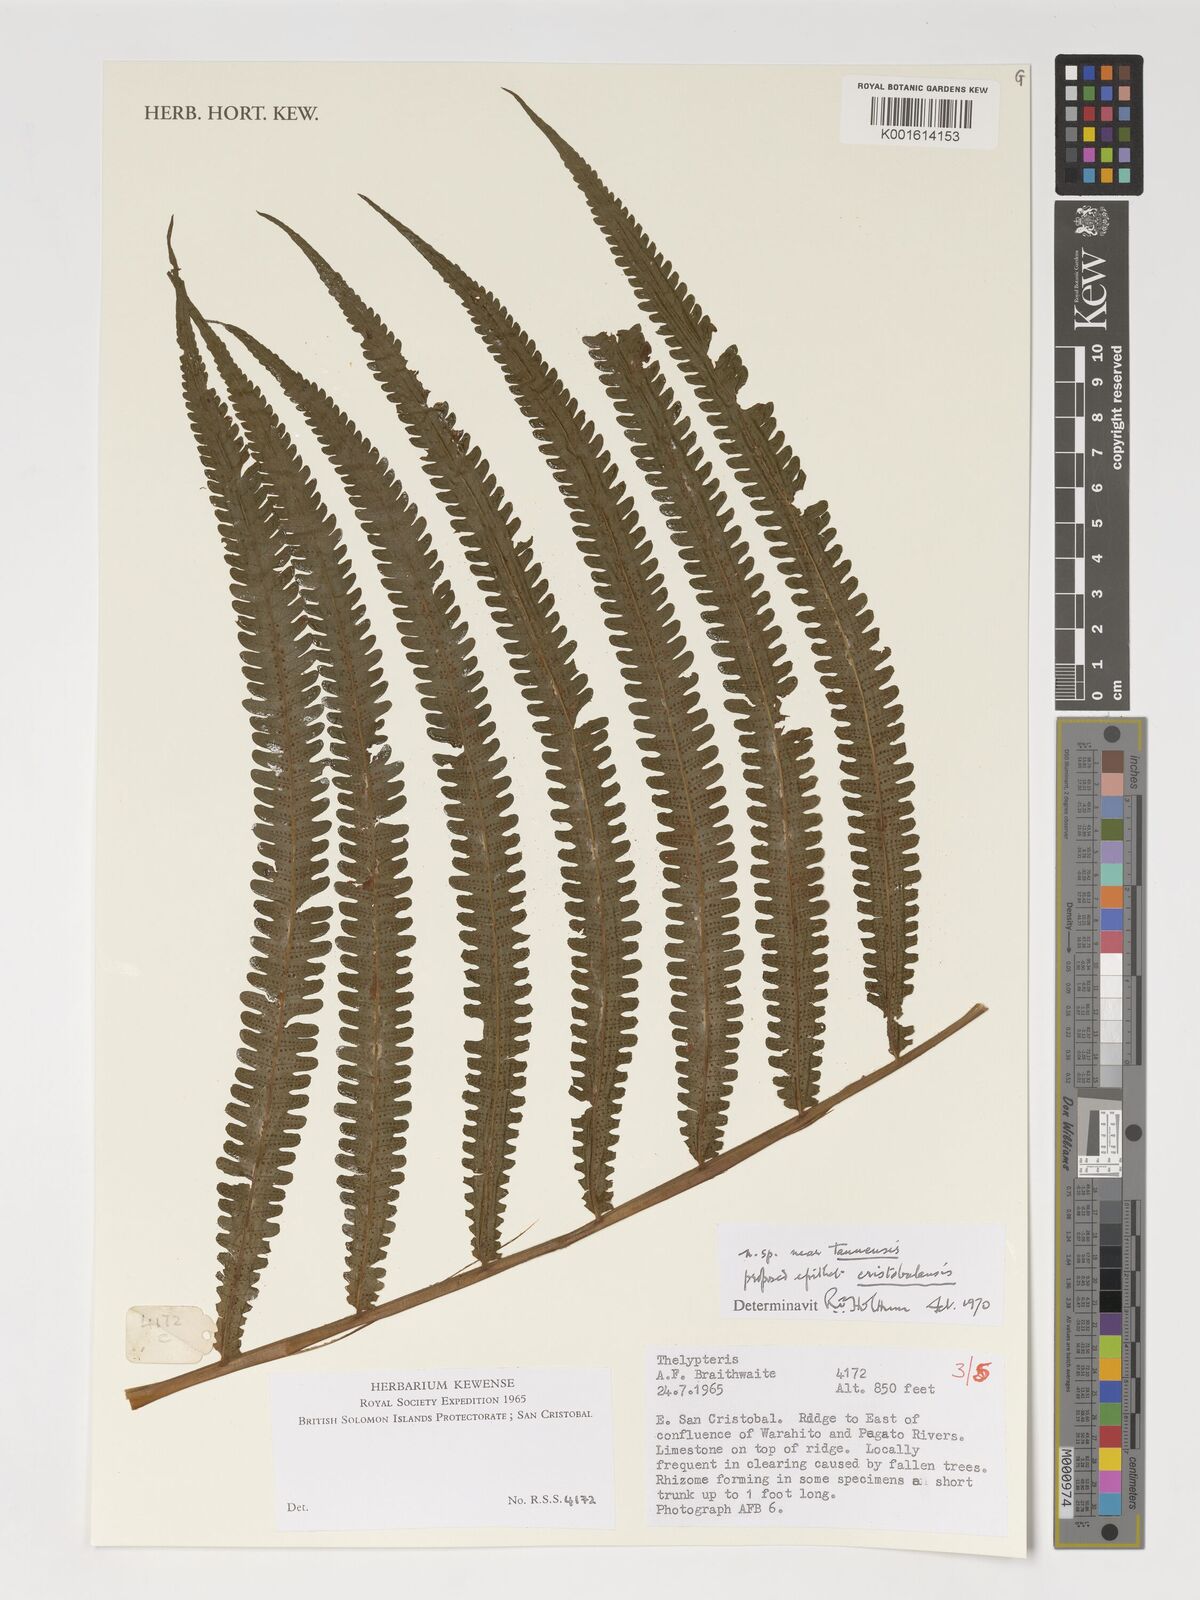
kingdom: Plantae
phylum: Tracheophyta
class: Polypodiopsida
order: Polypodiales
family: Thelypteridaceae
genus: Thelypteris
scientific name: Thelypteris
